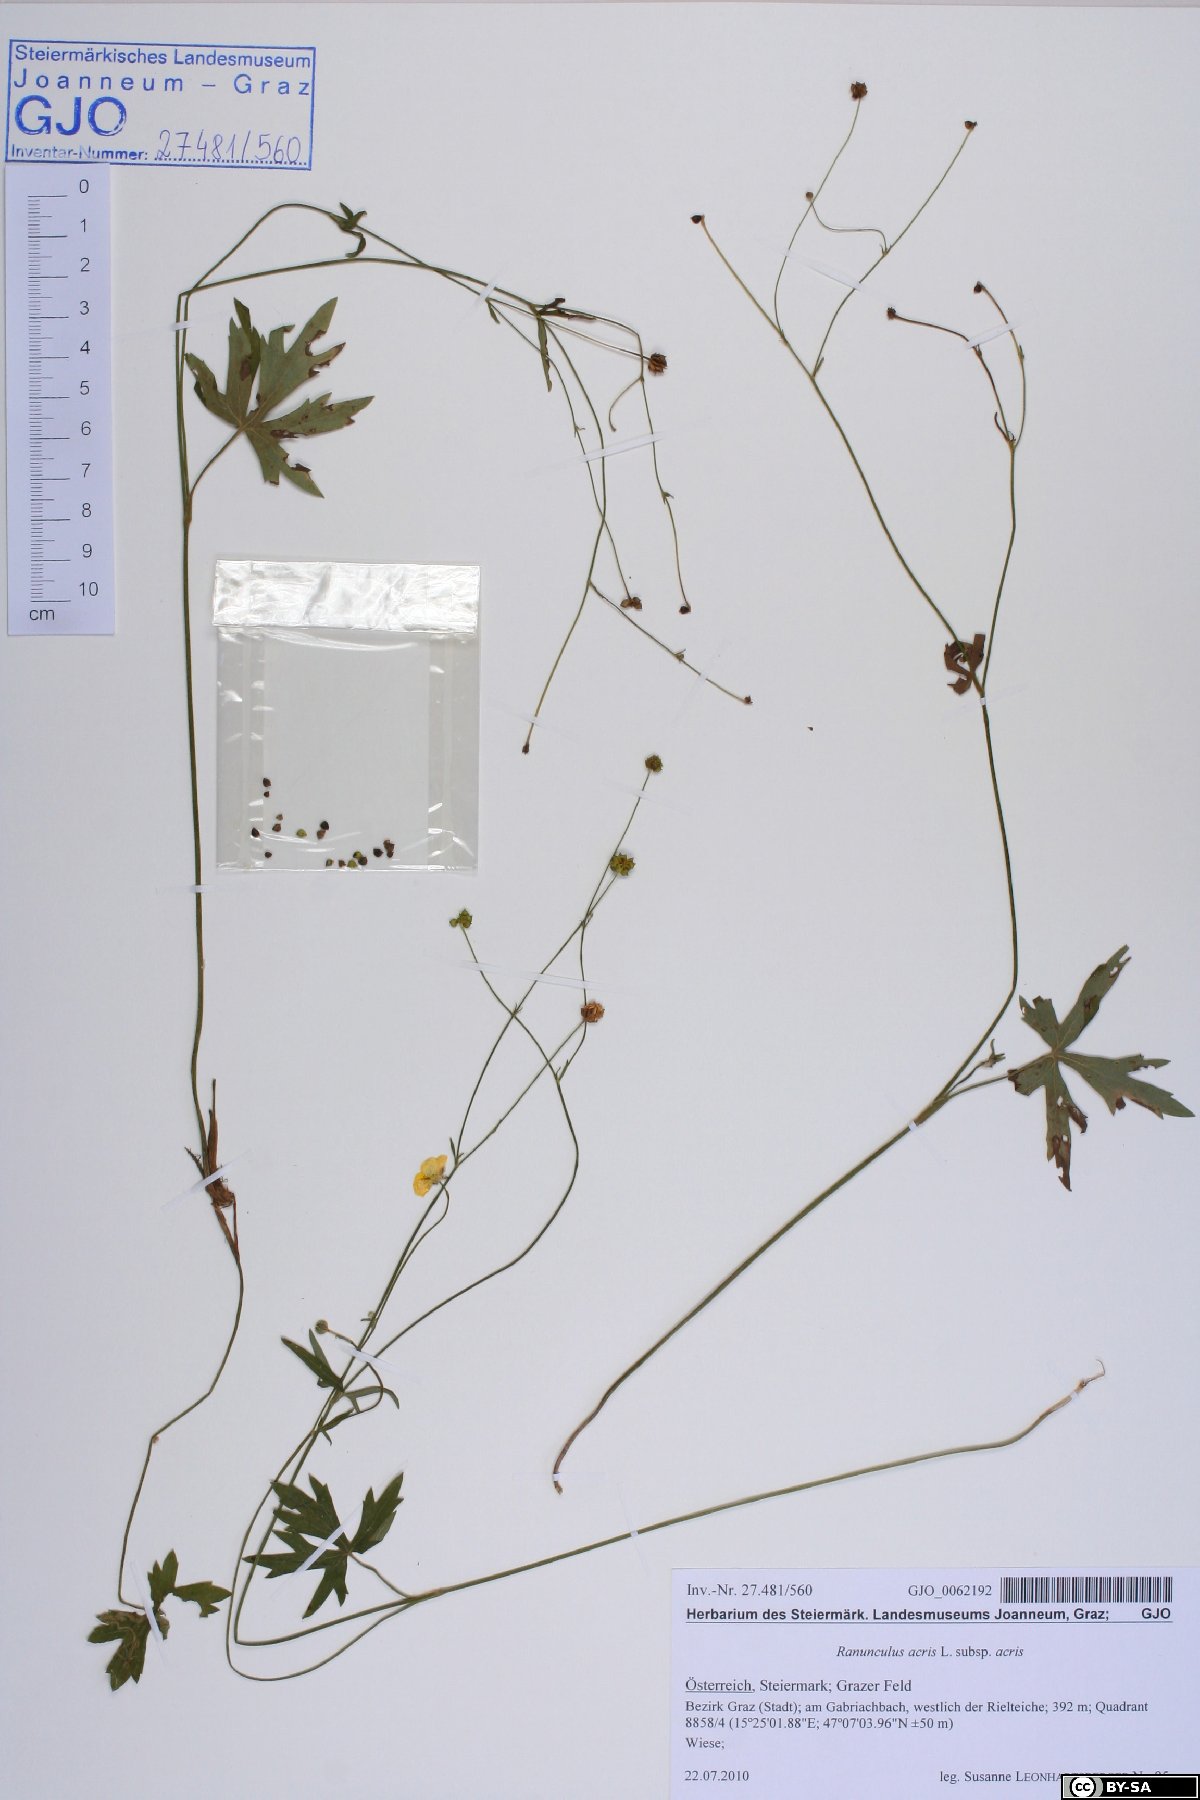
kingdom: Plantae
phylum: Tracheophyta
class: Magnoliopsida
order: Ranunculales
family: Ranunculaceae
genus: Ranunculus
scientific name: Ranunculus acris
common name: Meadow buttercup
